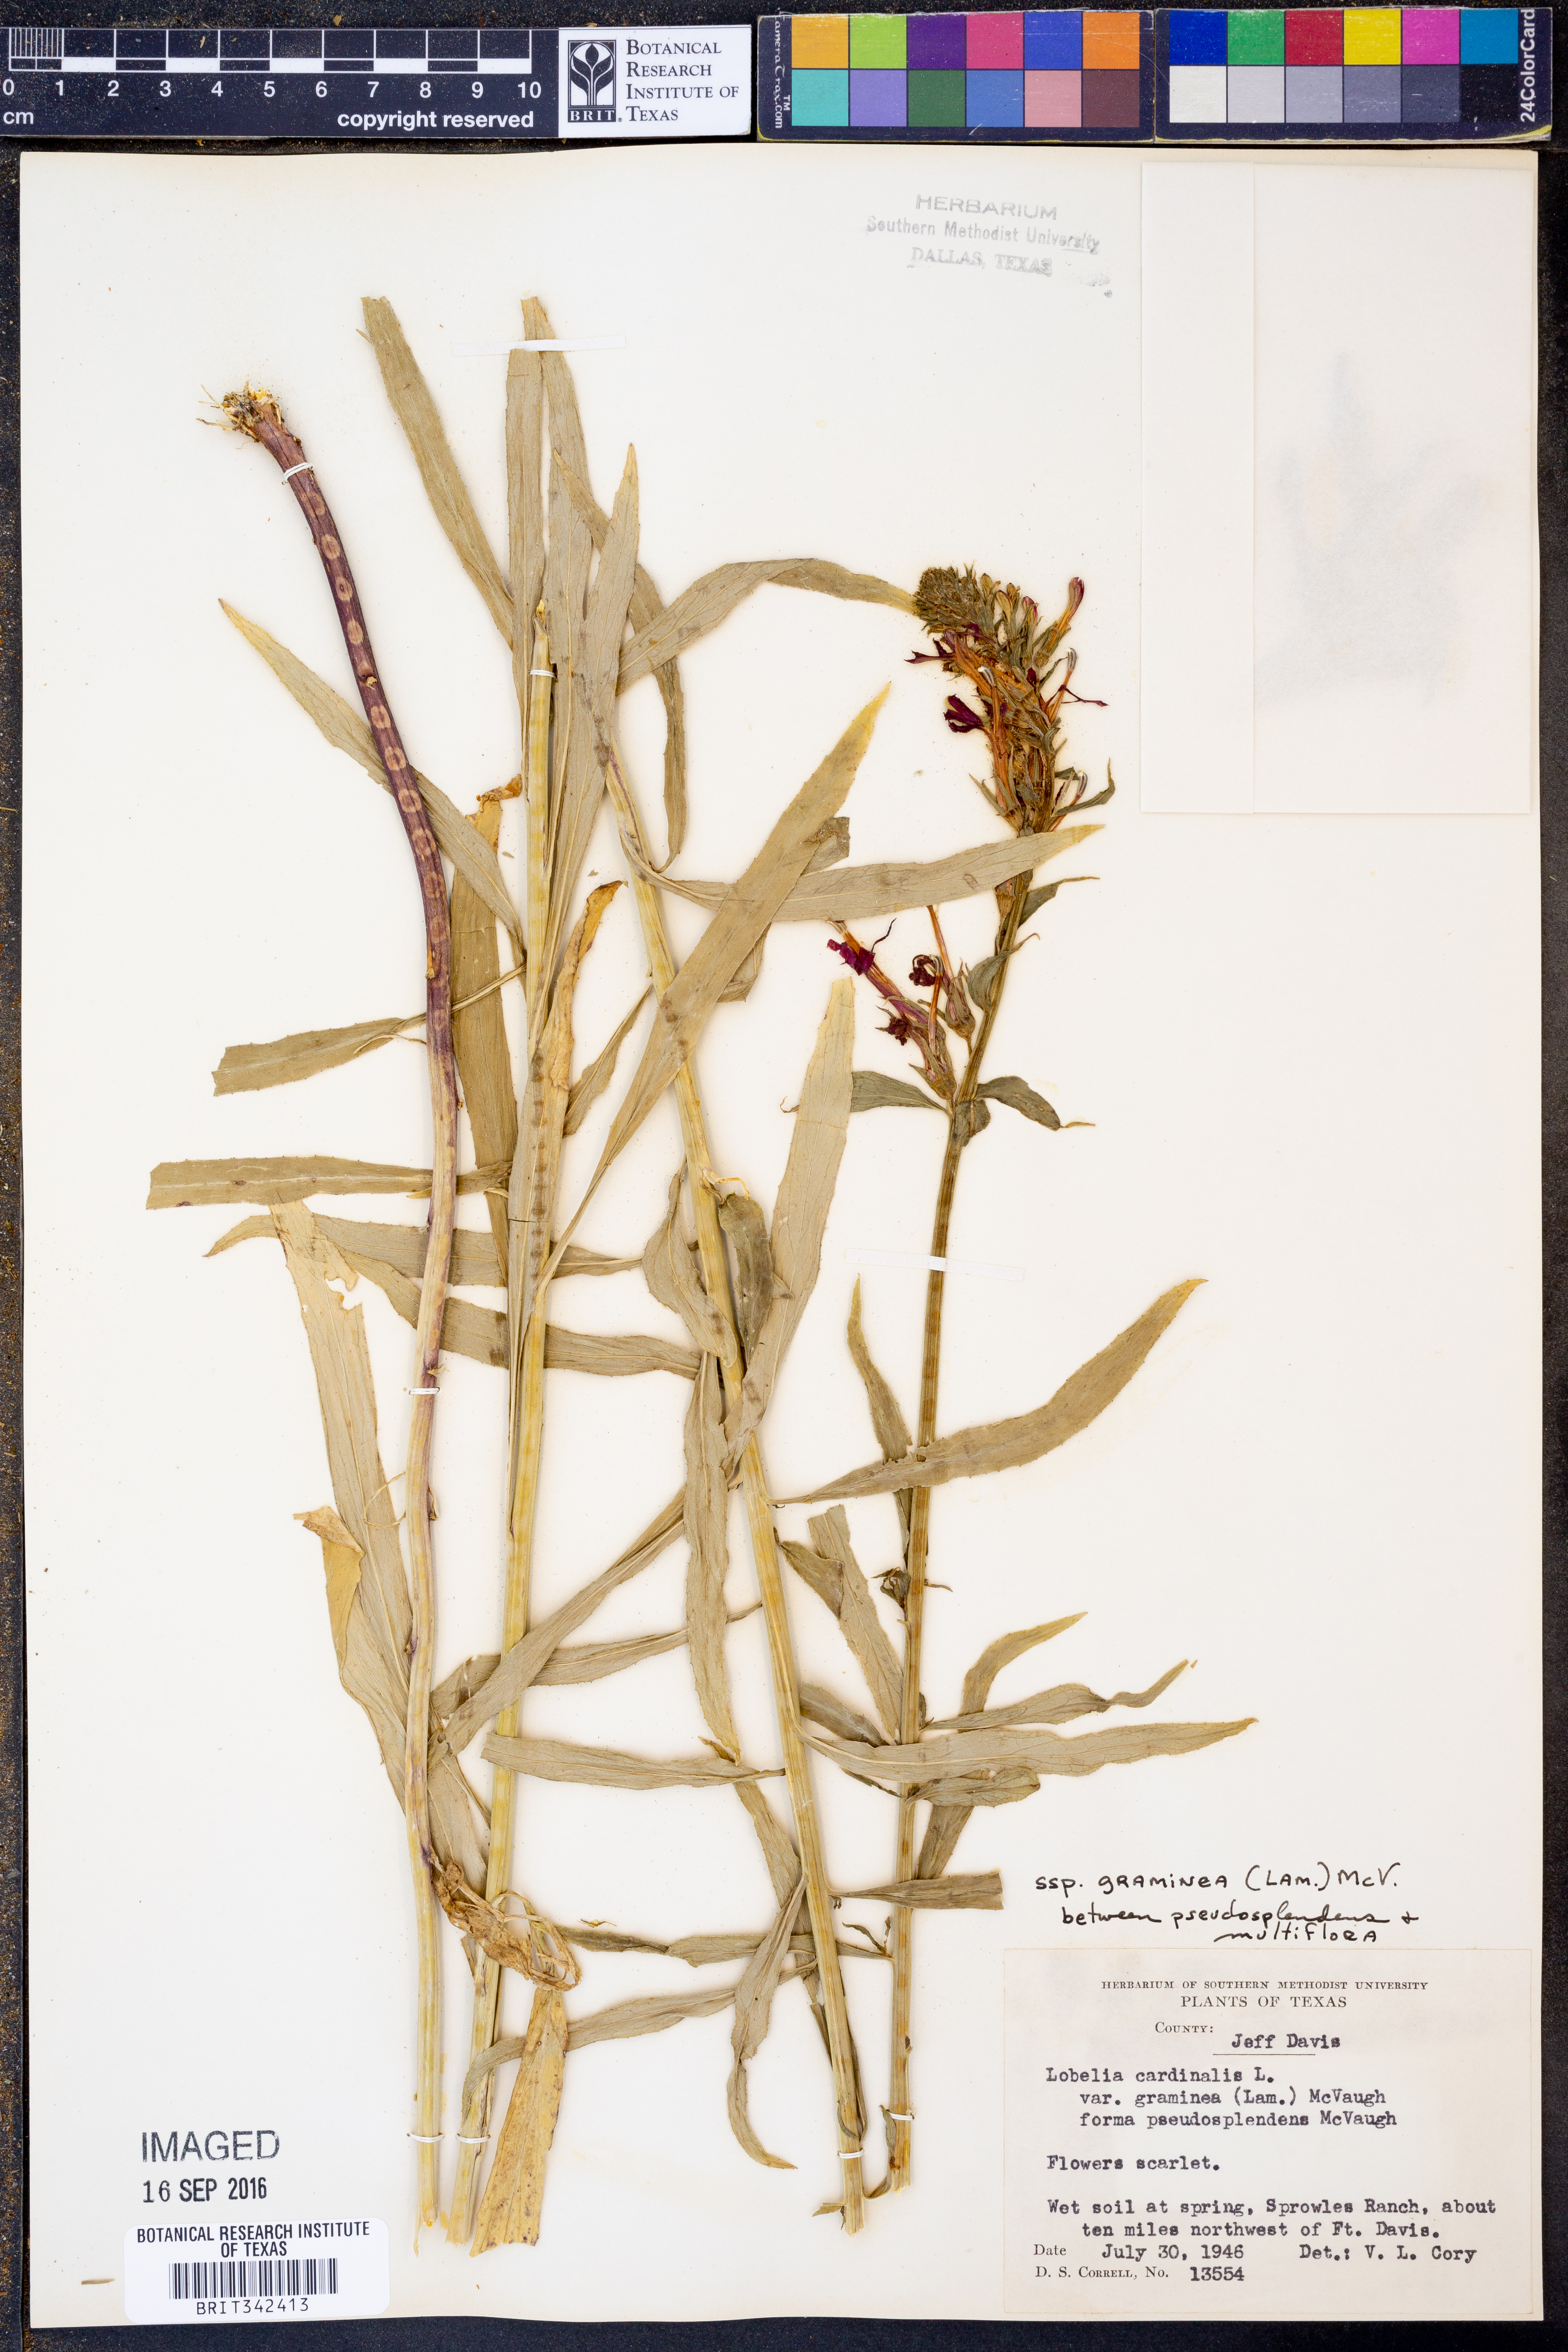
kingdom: Plantae
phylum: Tracheophyta
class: Magnoliopsida
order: Asterales
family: Campanulaceae
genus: Lobelia
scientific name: Lobelia cardinalis
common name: Cardinal flower
